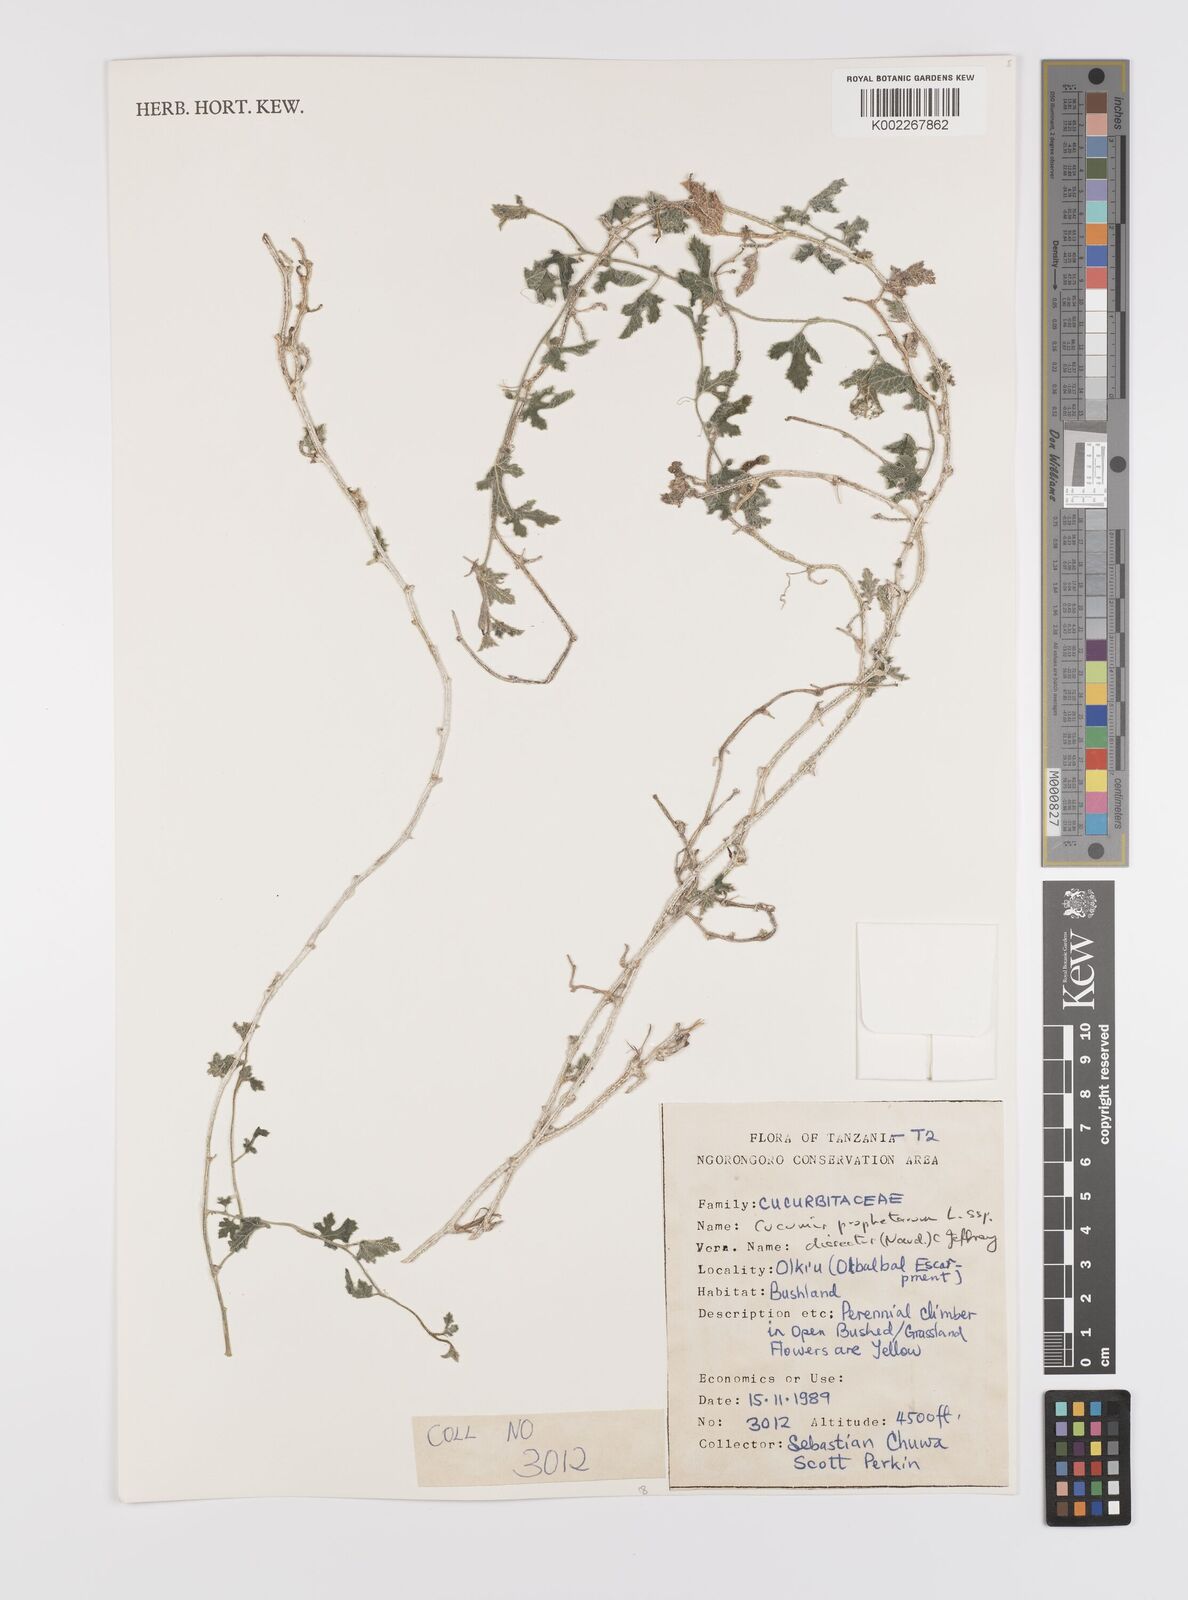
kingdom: Plantae
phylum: Tracheophyta
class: Magnoliopsida
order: Cucurbitales
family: Cucurbitaceae
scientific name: Cucurbitaceae
